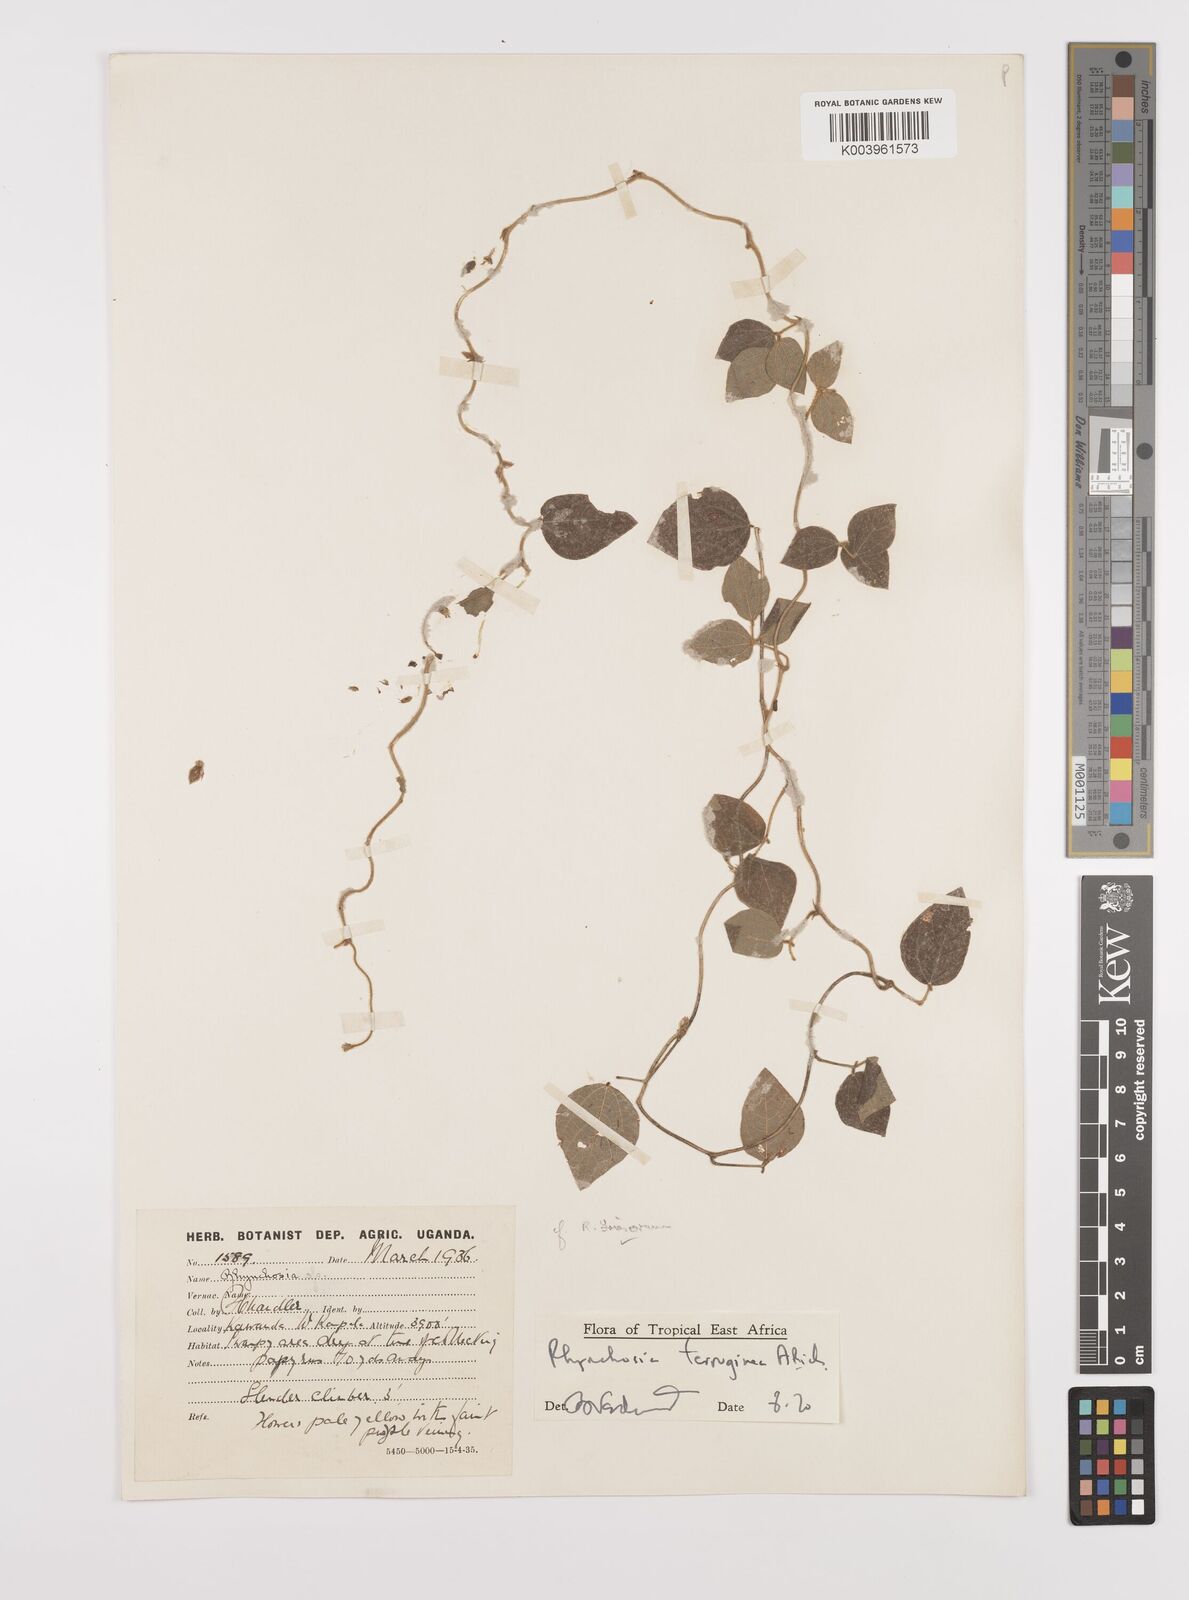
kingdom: Plantae
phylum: Tracheophyta
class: Magnoliopsida
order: Fabales
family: Fabaceae
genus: Rhynchosia
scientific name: Rhynchosia ferruginea
